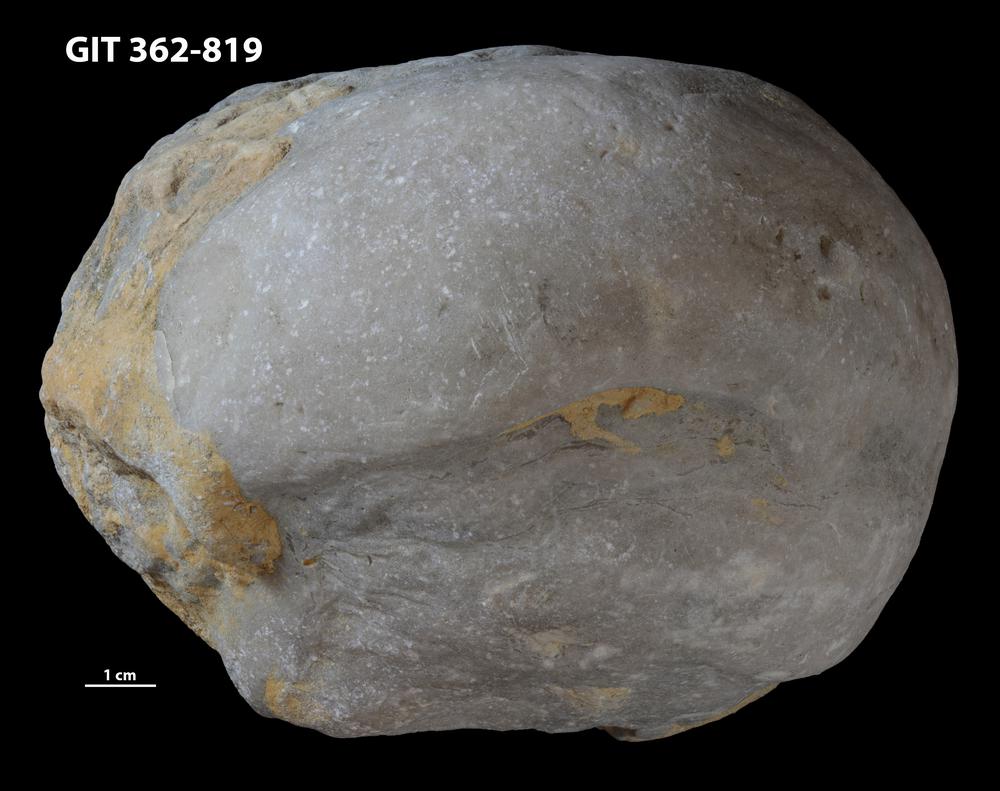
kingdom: Animalia
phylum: Porifera
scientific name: Porifera
